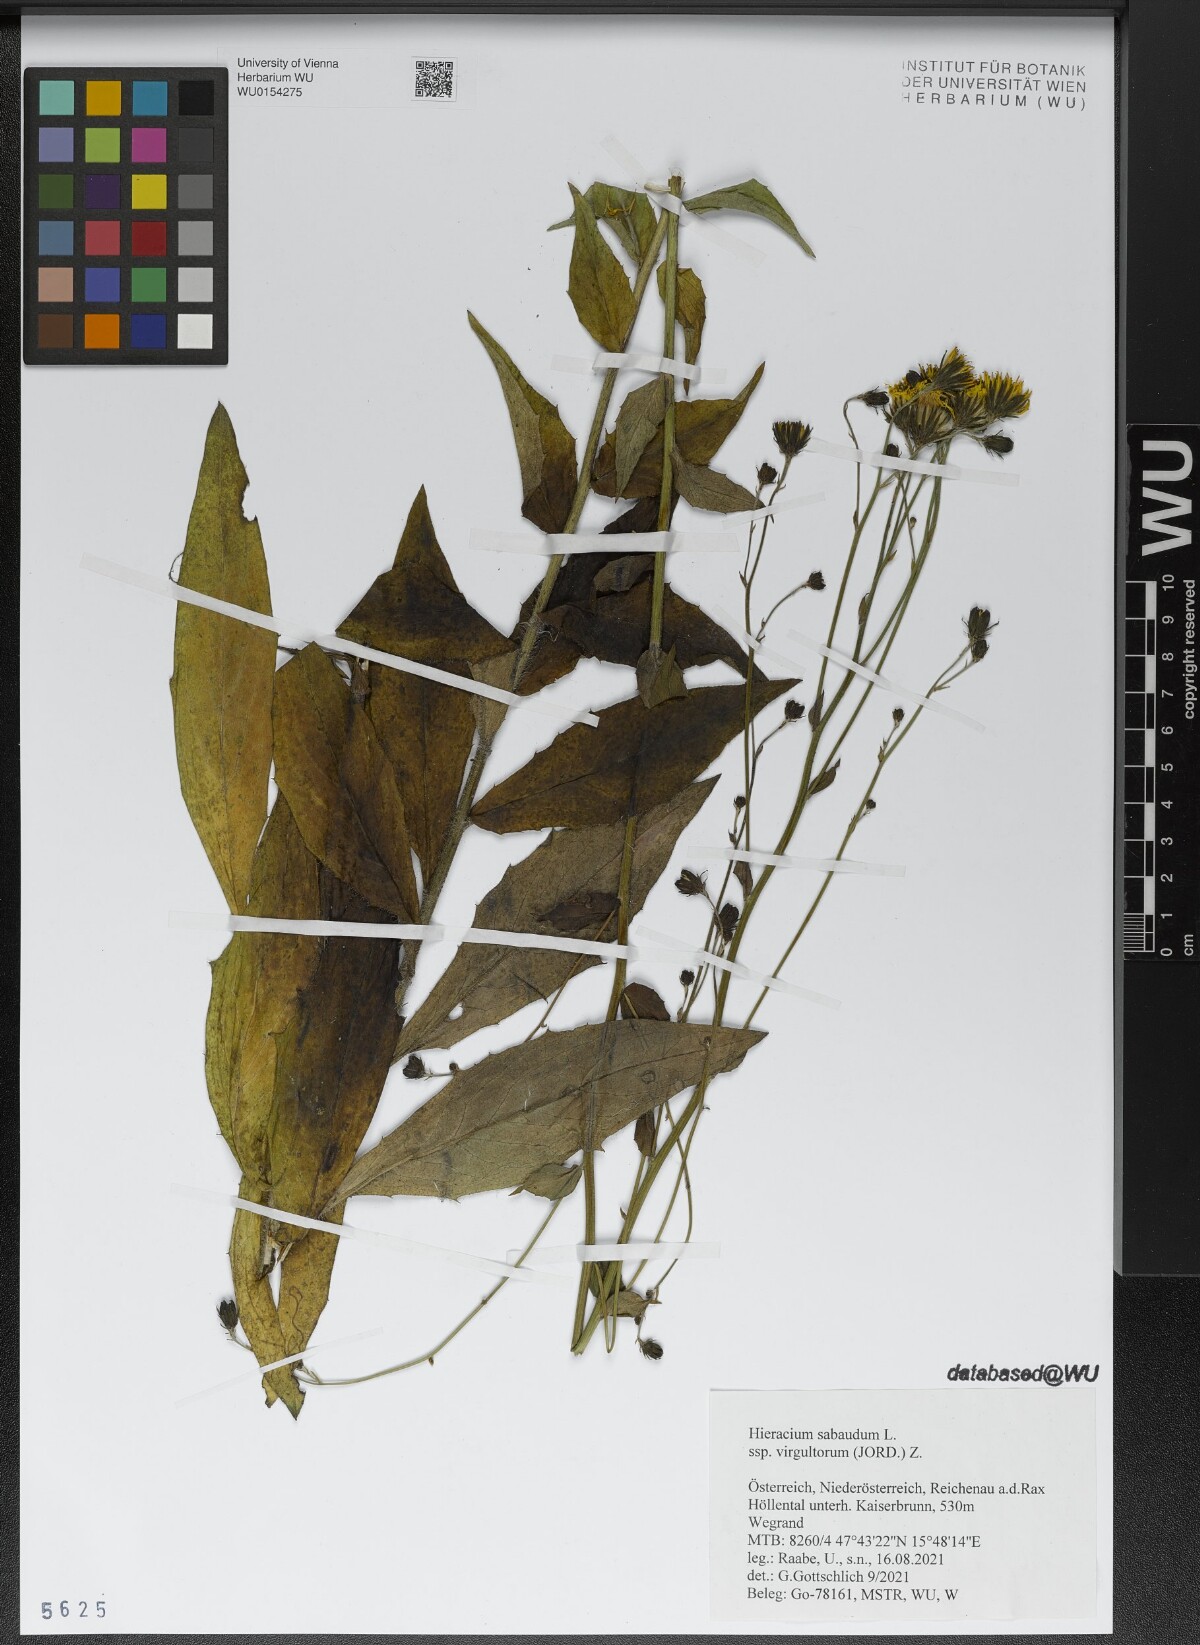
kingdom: Plantae
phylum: Tracheophyta
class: Magnoliopsida
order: Asterales
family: Asteraceae
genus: Hieracium
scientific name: Hieracium sabaudum
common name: New england hawkweed
